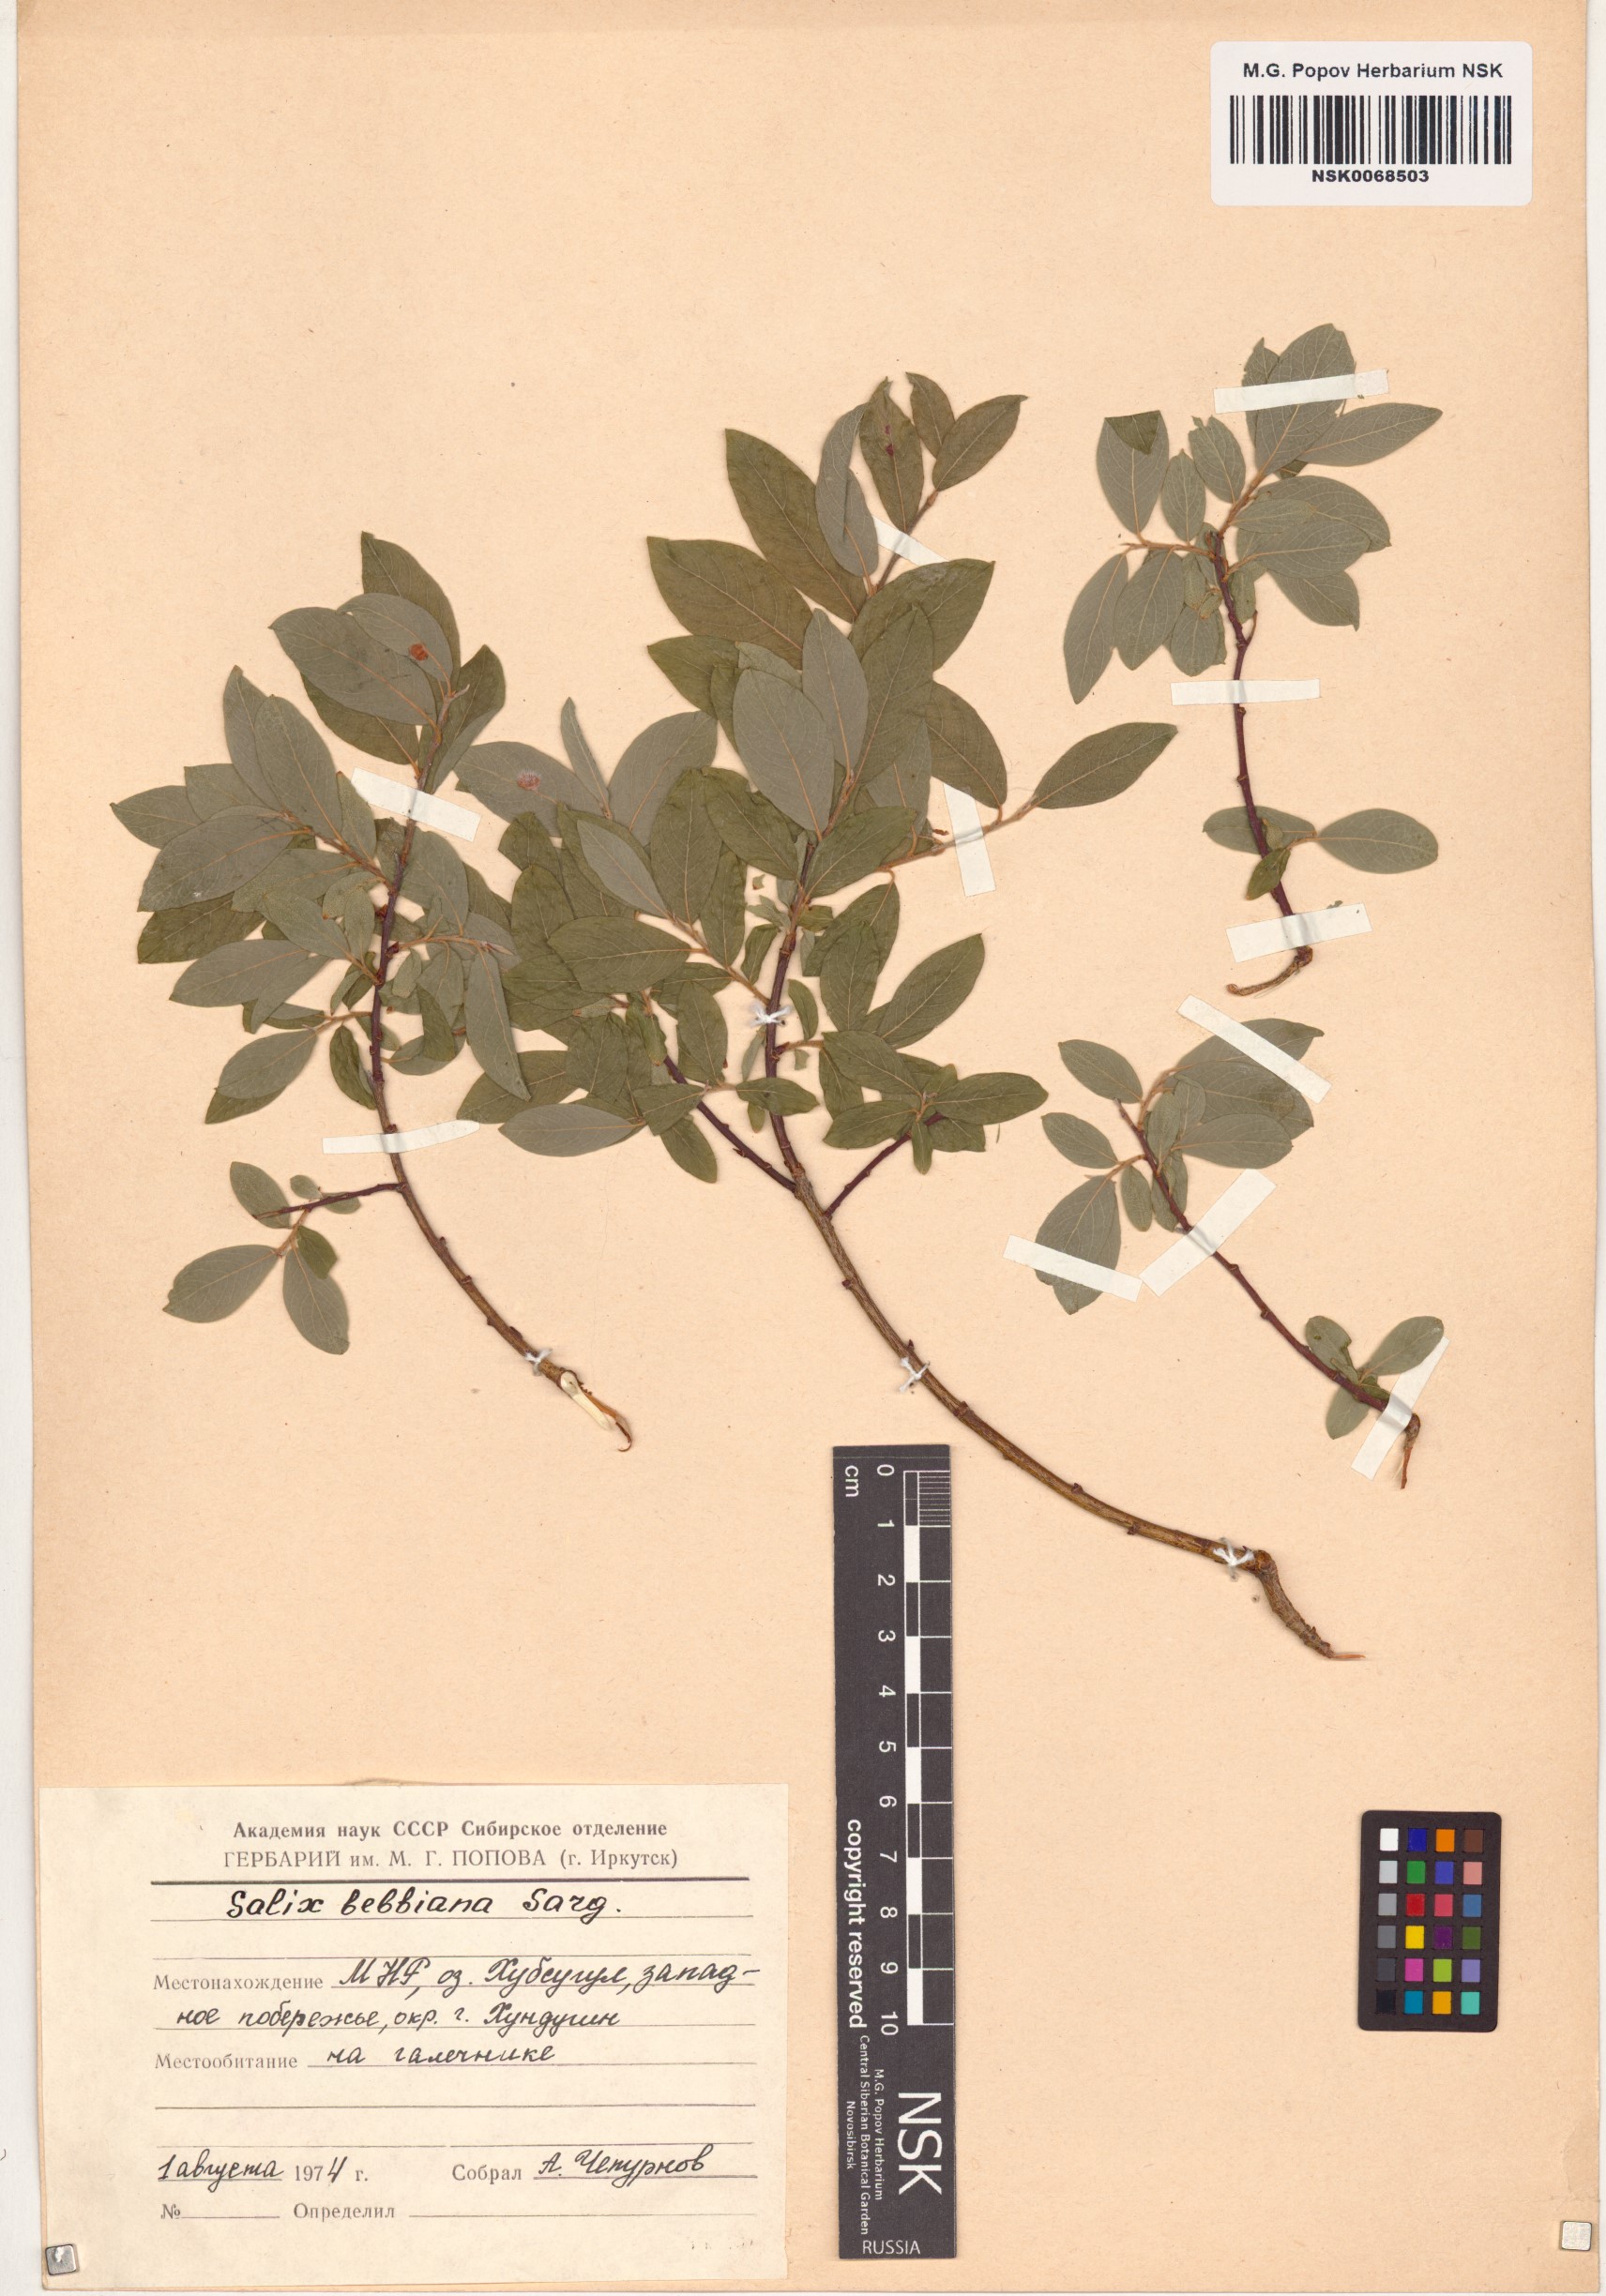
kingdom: Plantae
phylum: Tracheophyta
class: Magnoliopsida
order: Malpighiales
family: Salicaceae
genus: Salix
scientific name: Salix bebbiana
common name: Bebb's willow
